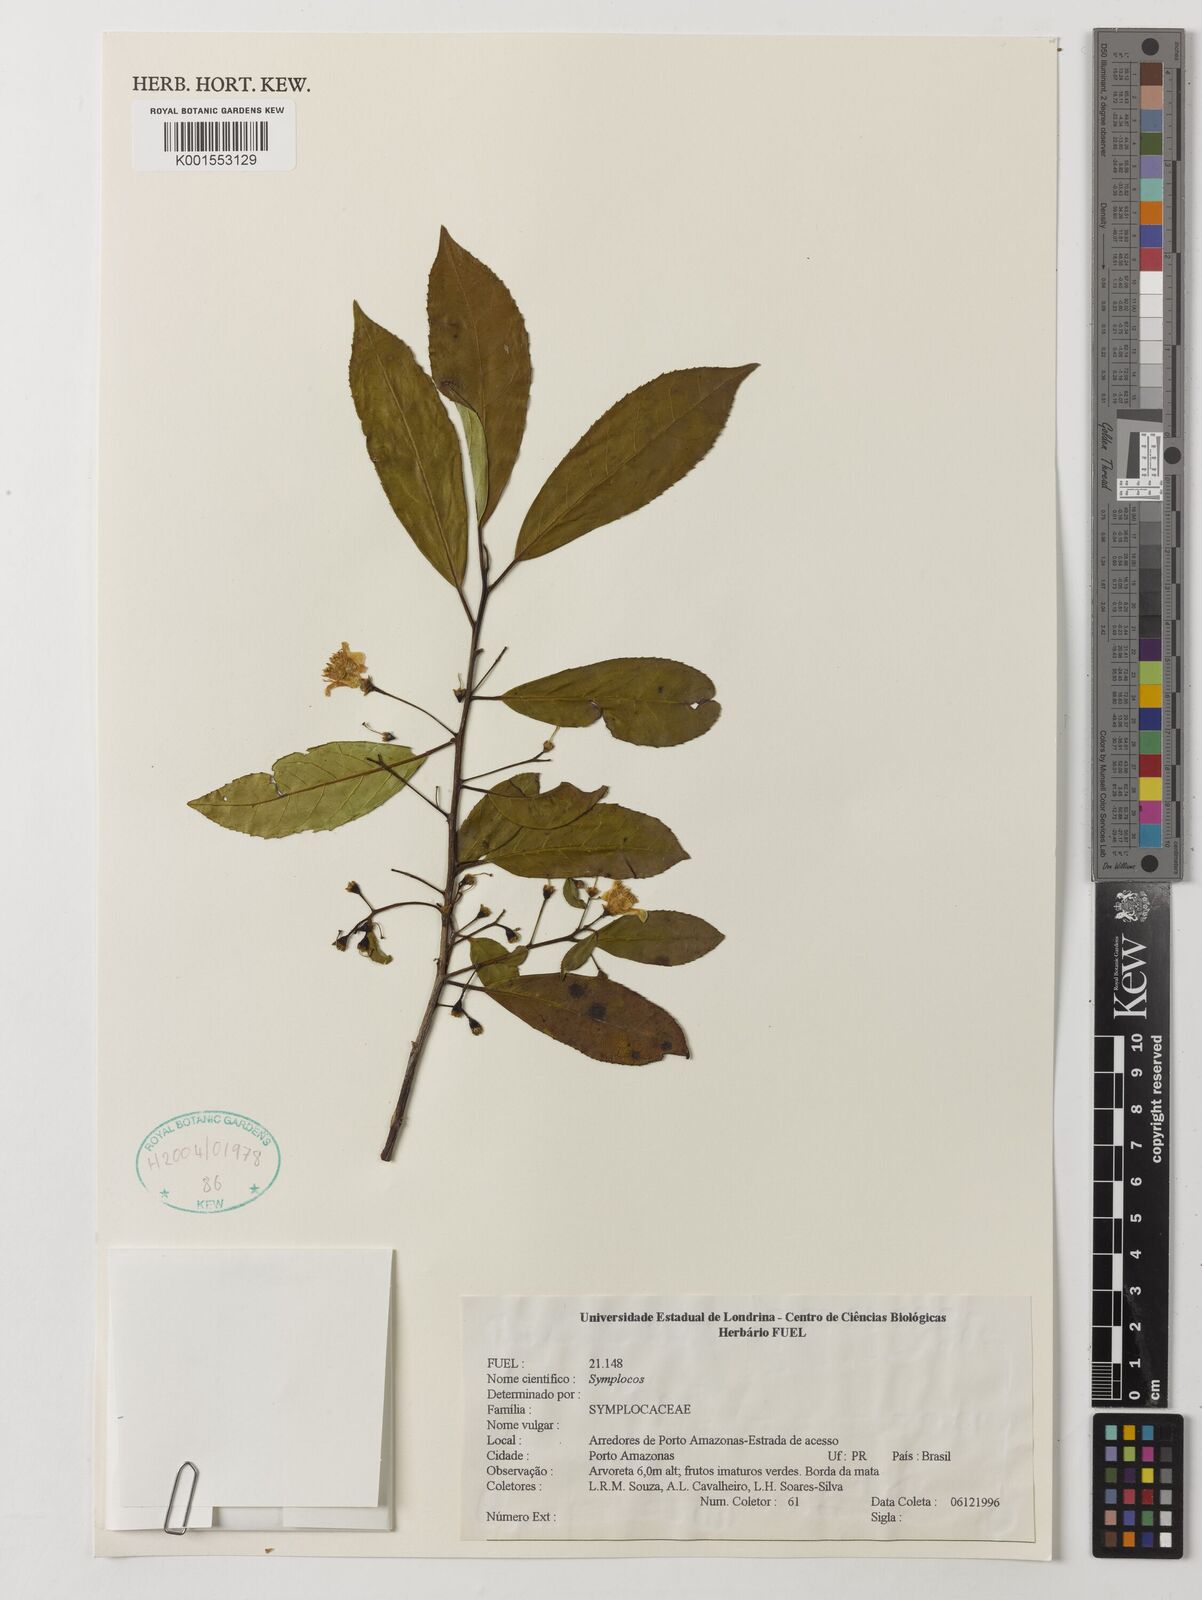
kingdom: Plantae
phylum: Tracheophyta
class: Magnoliopsida
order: Ericales
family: Symplocaceae
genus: Symplocos
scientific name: Symplocos
